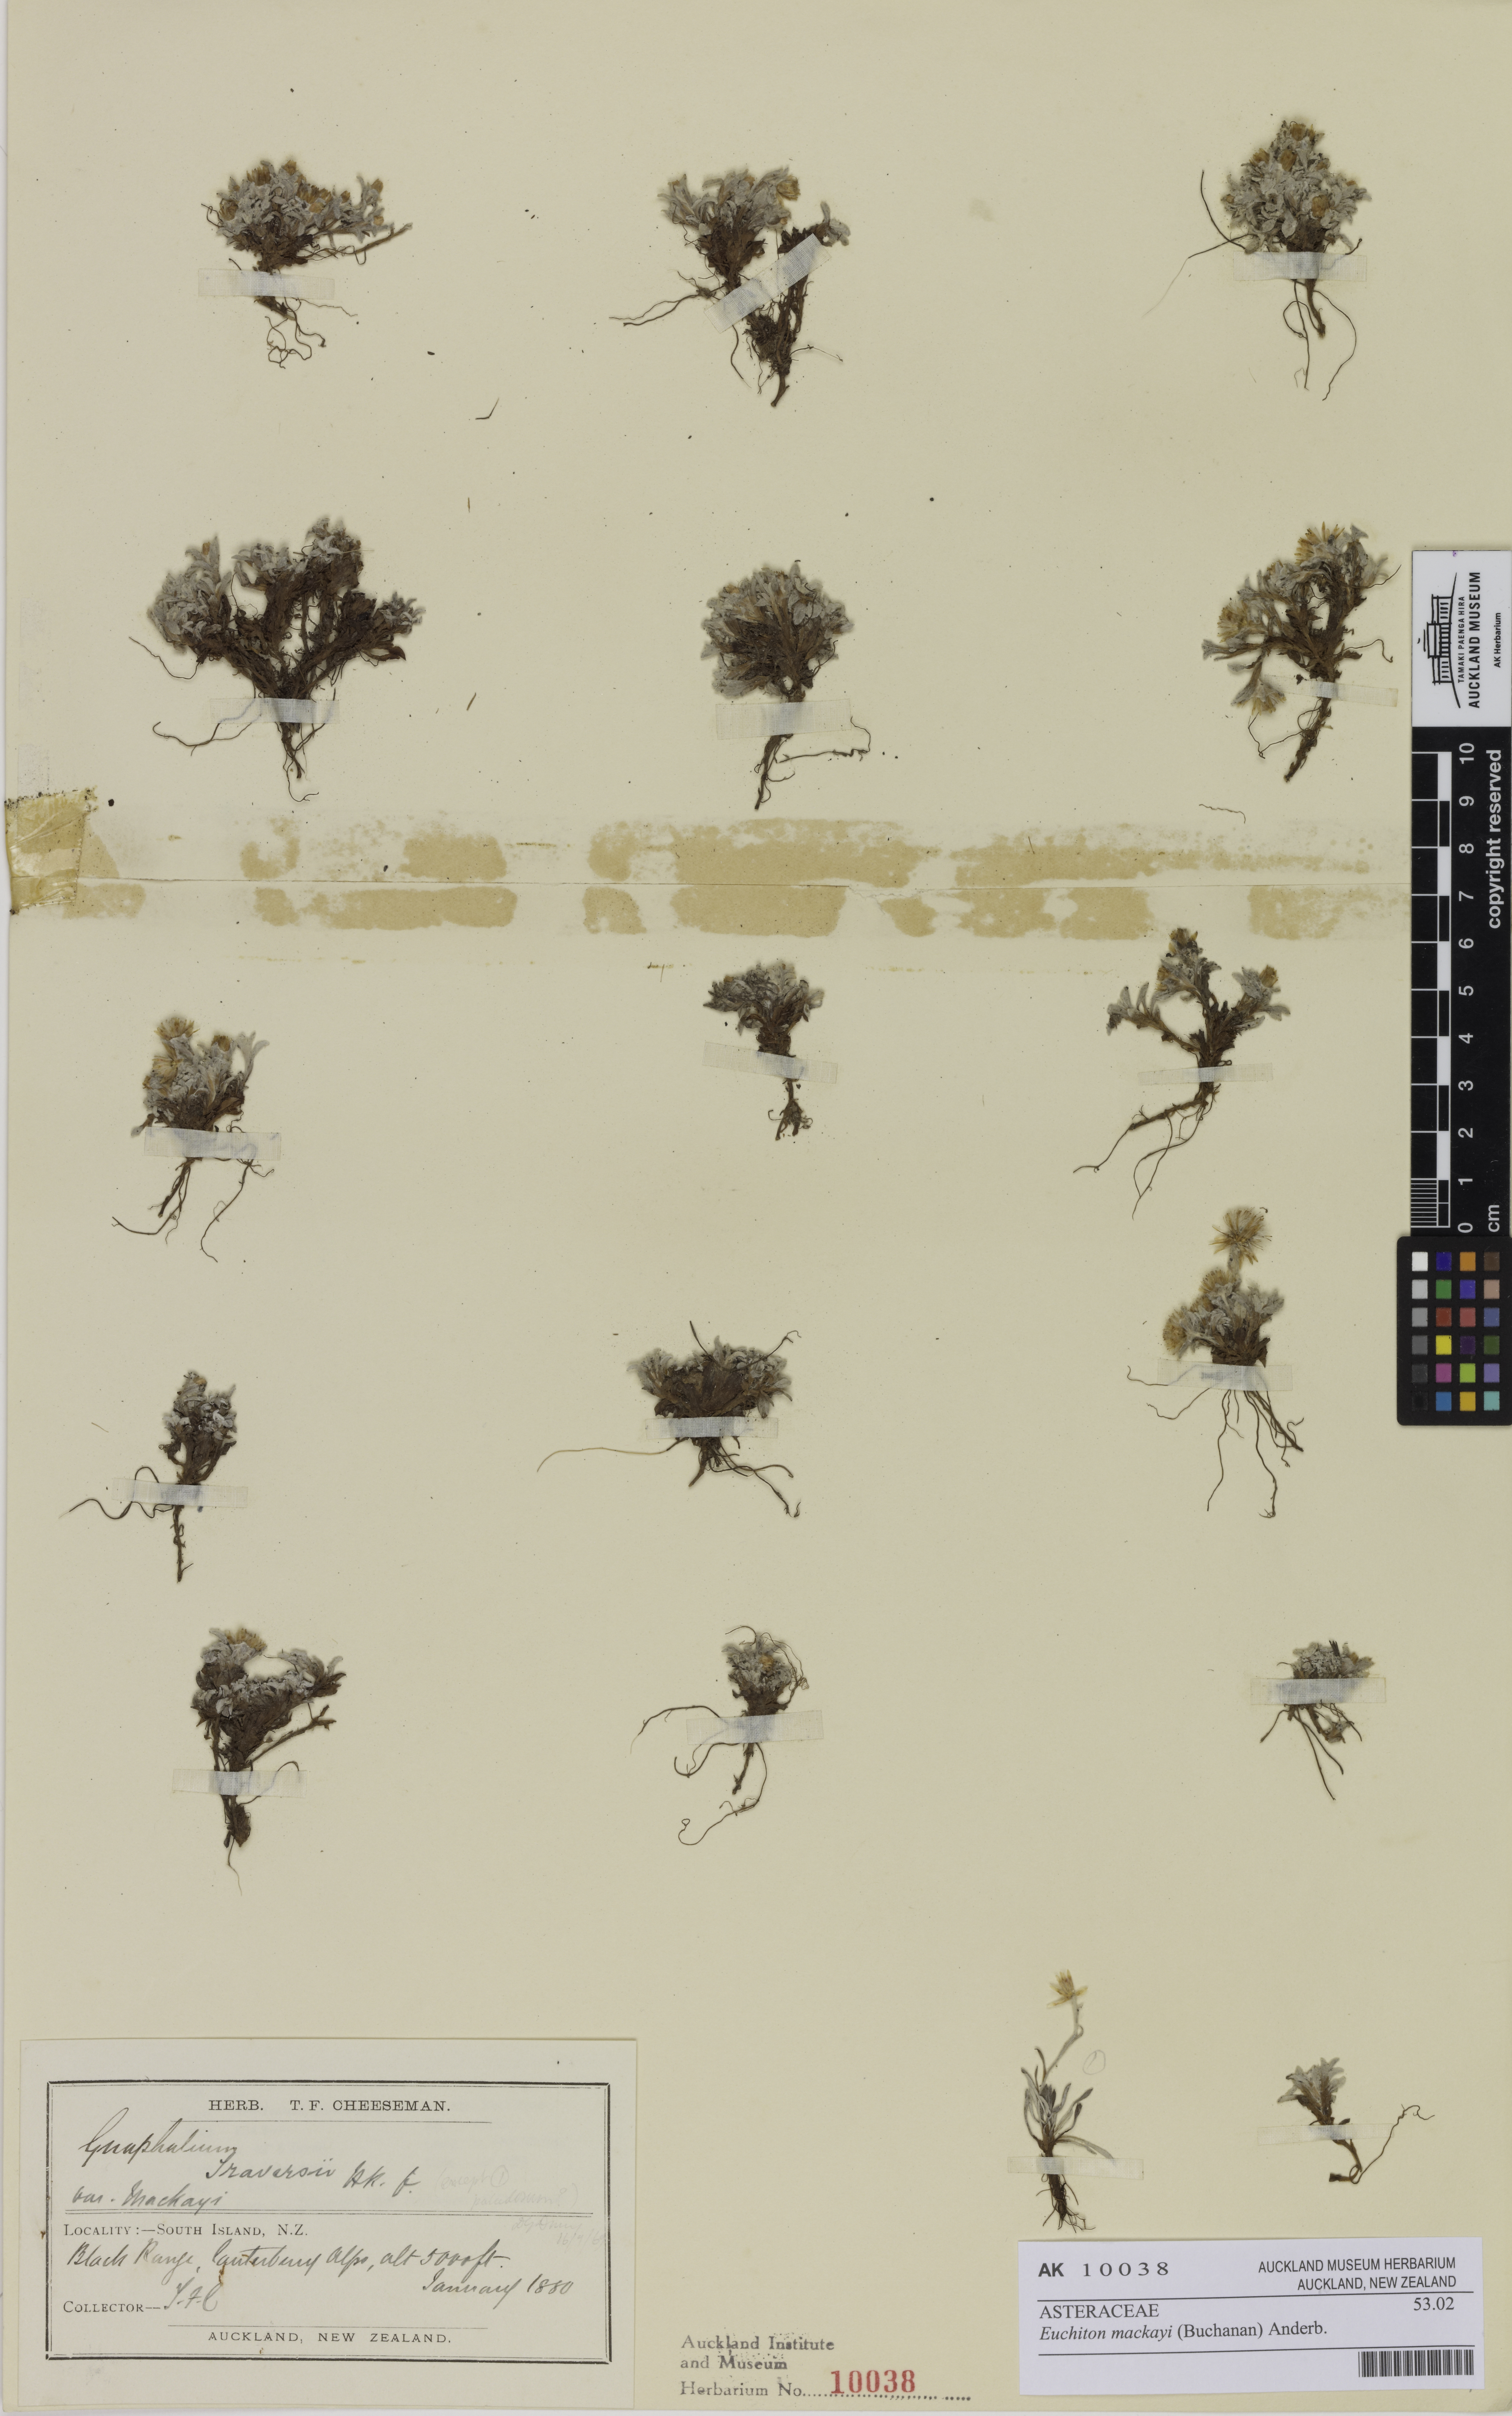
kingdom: Plantae
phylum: Tracheophyta
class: Magnoliopsida
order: Asterales
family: Asteraceae
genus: Argyrotegium
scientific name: Argyrotegium mackayi
